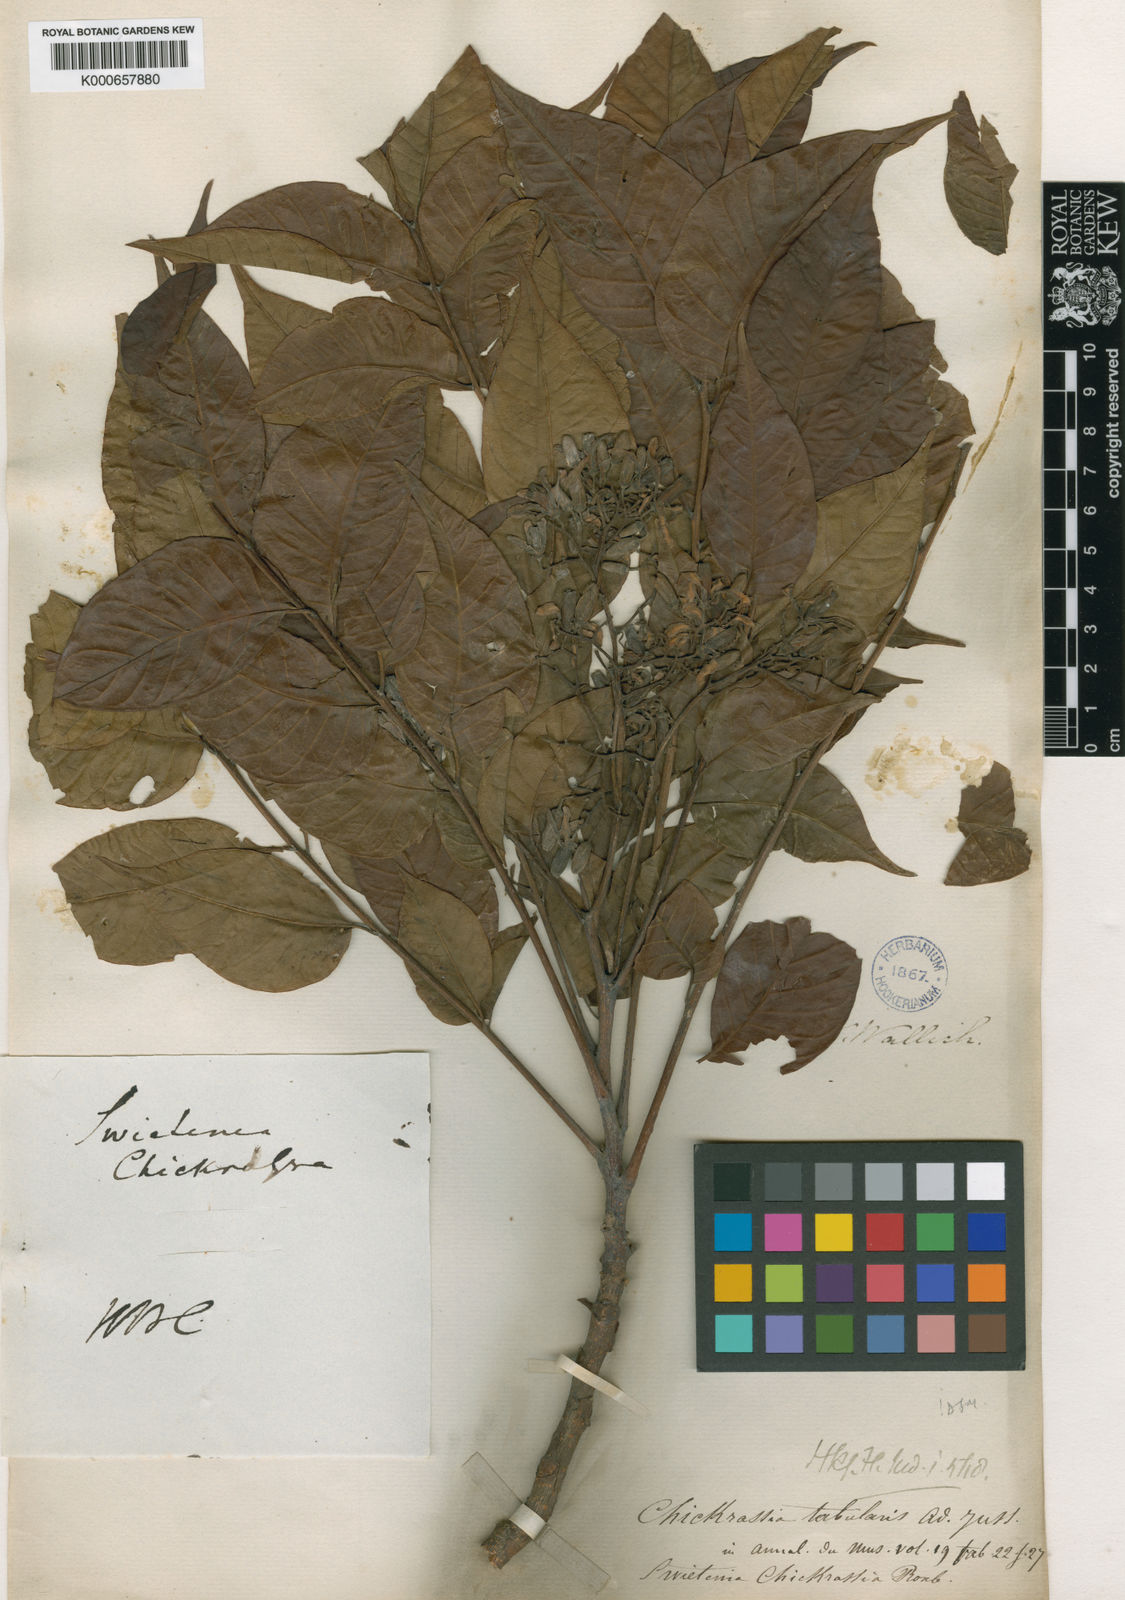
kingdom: Plantae
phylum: Tracheophyta
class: Magnoliopsida
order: Sapindales
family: Meliaceae
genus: Chukrasia
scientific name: Chukrasia tabularis
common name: Chittagong wood
